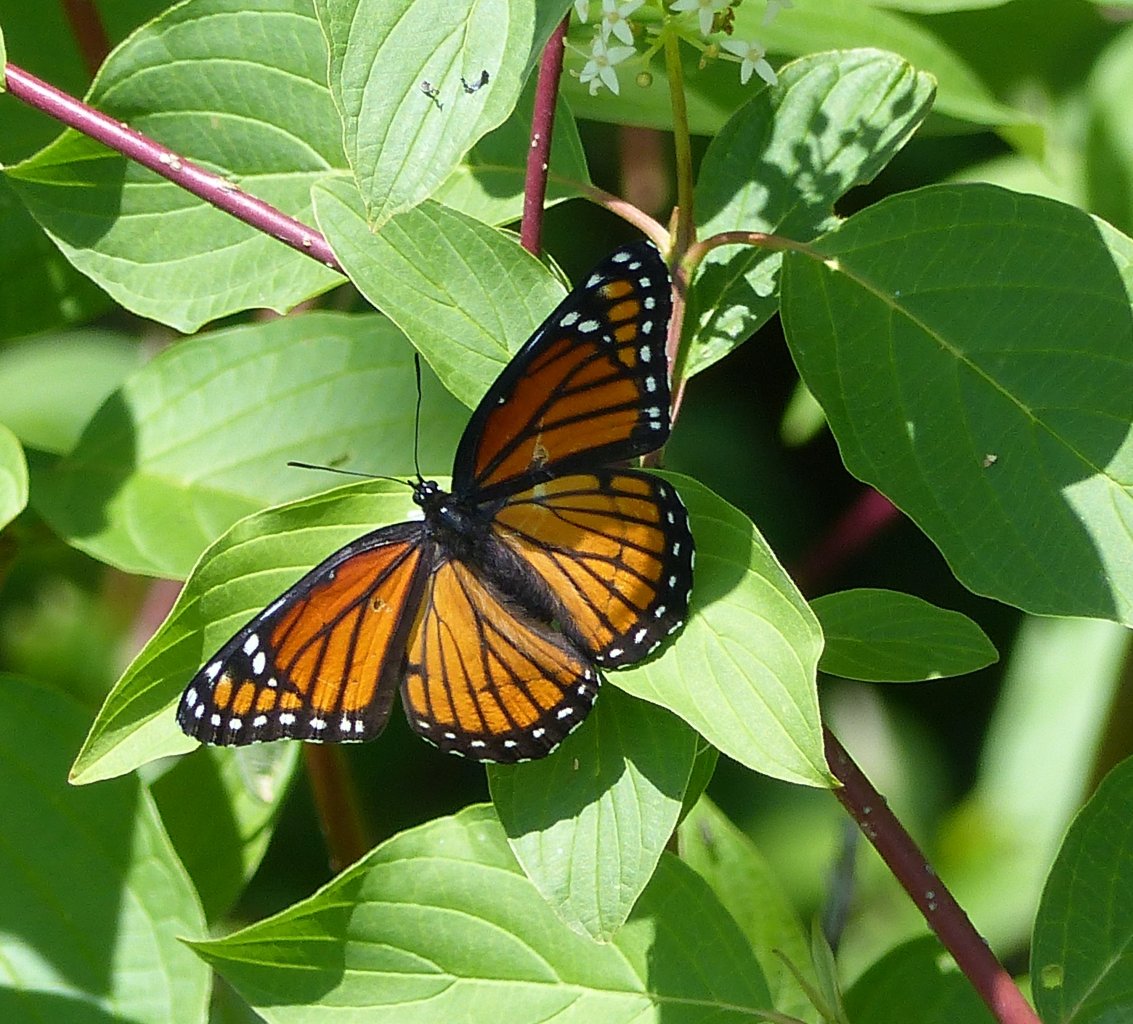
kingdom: Animalia
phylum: Arthropoda
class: Insecta
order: Lepidoptera
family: Nymphalidae
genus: Limenitis
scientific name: Limenitis archippus
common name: Viceroy
